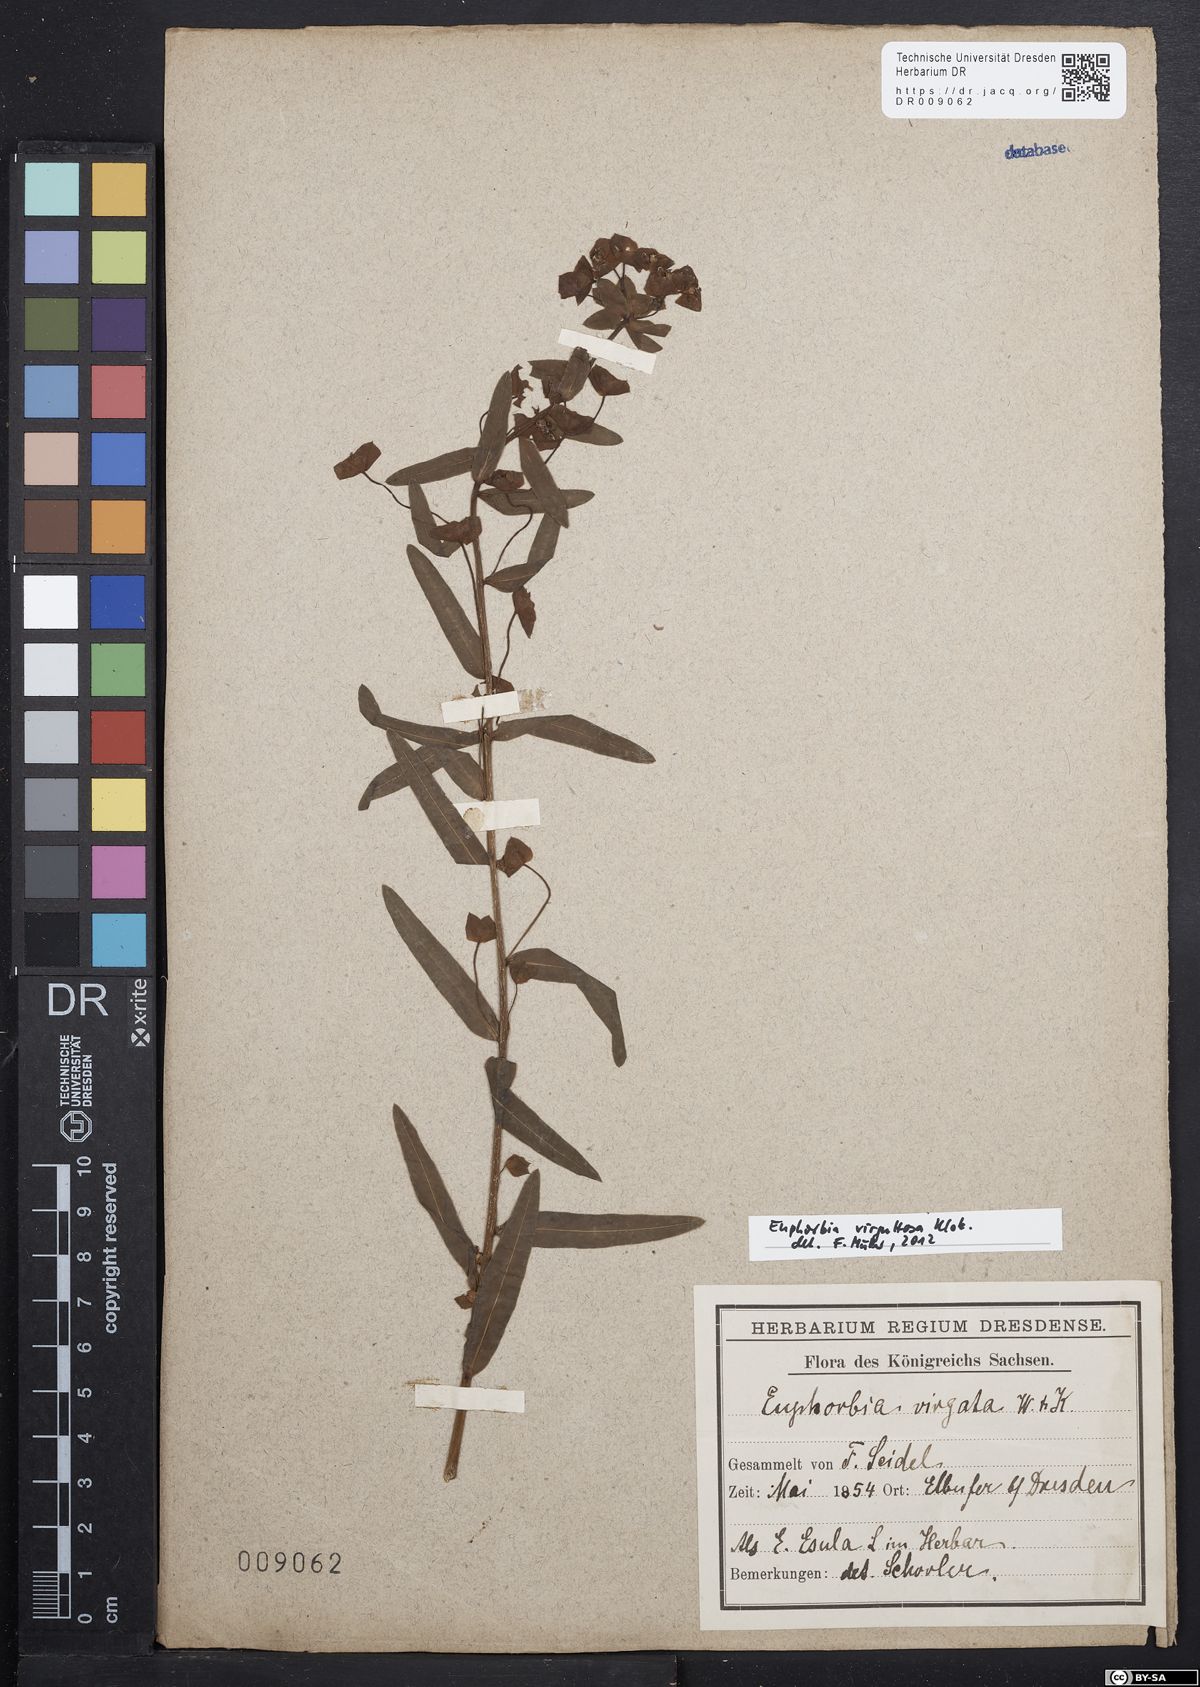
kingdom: Plantae
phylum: Tracheophyta
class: Magnoliopsida
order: Malpighiales
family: Euphorbiaceae
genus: Euphorbia
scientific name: Euphorbia saratoi
